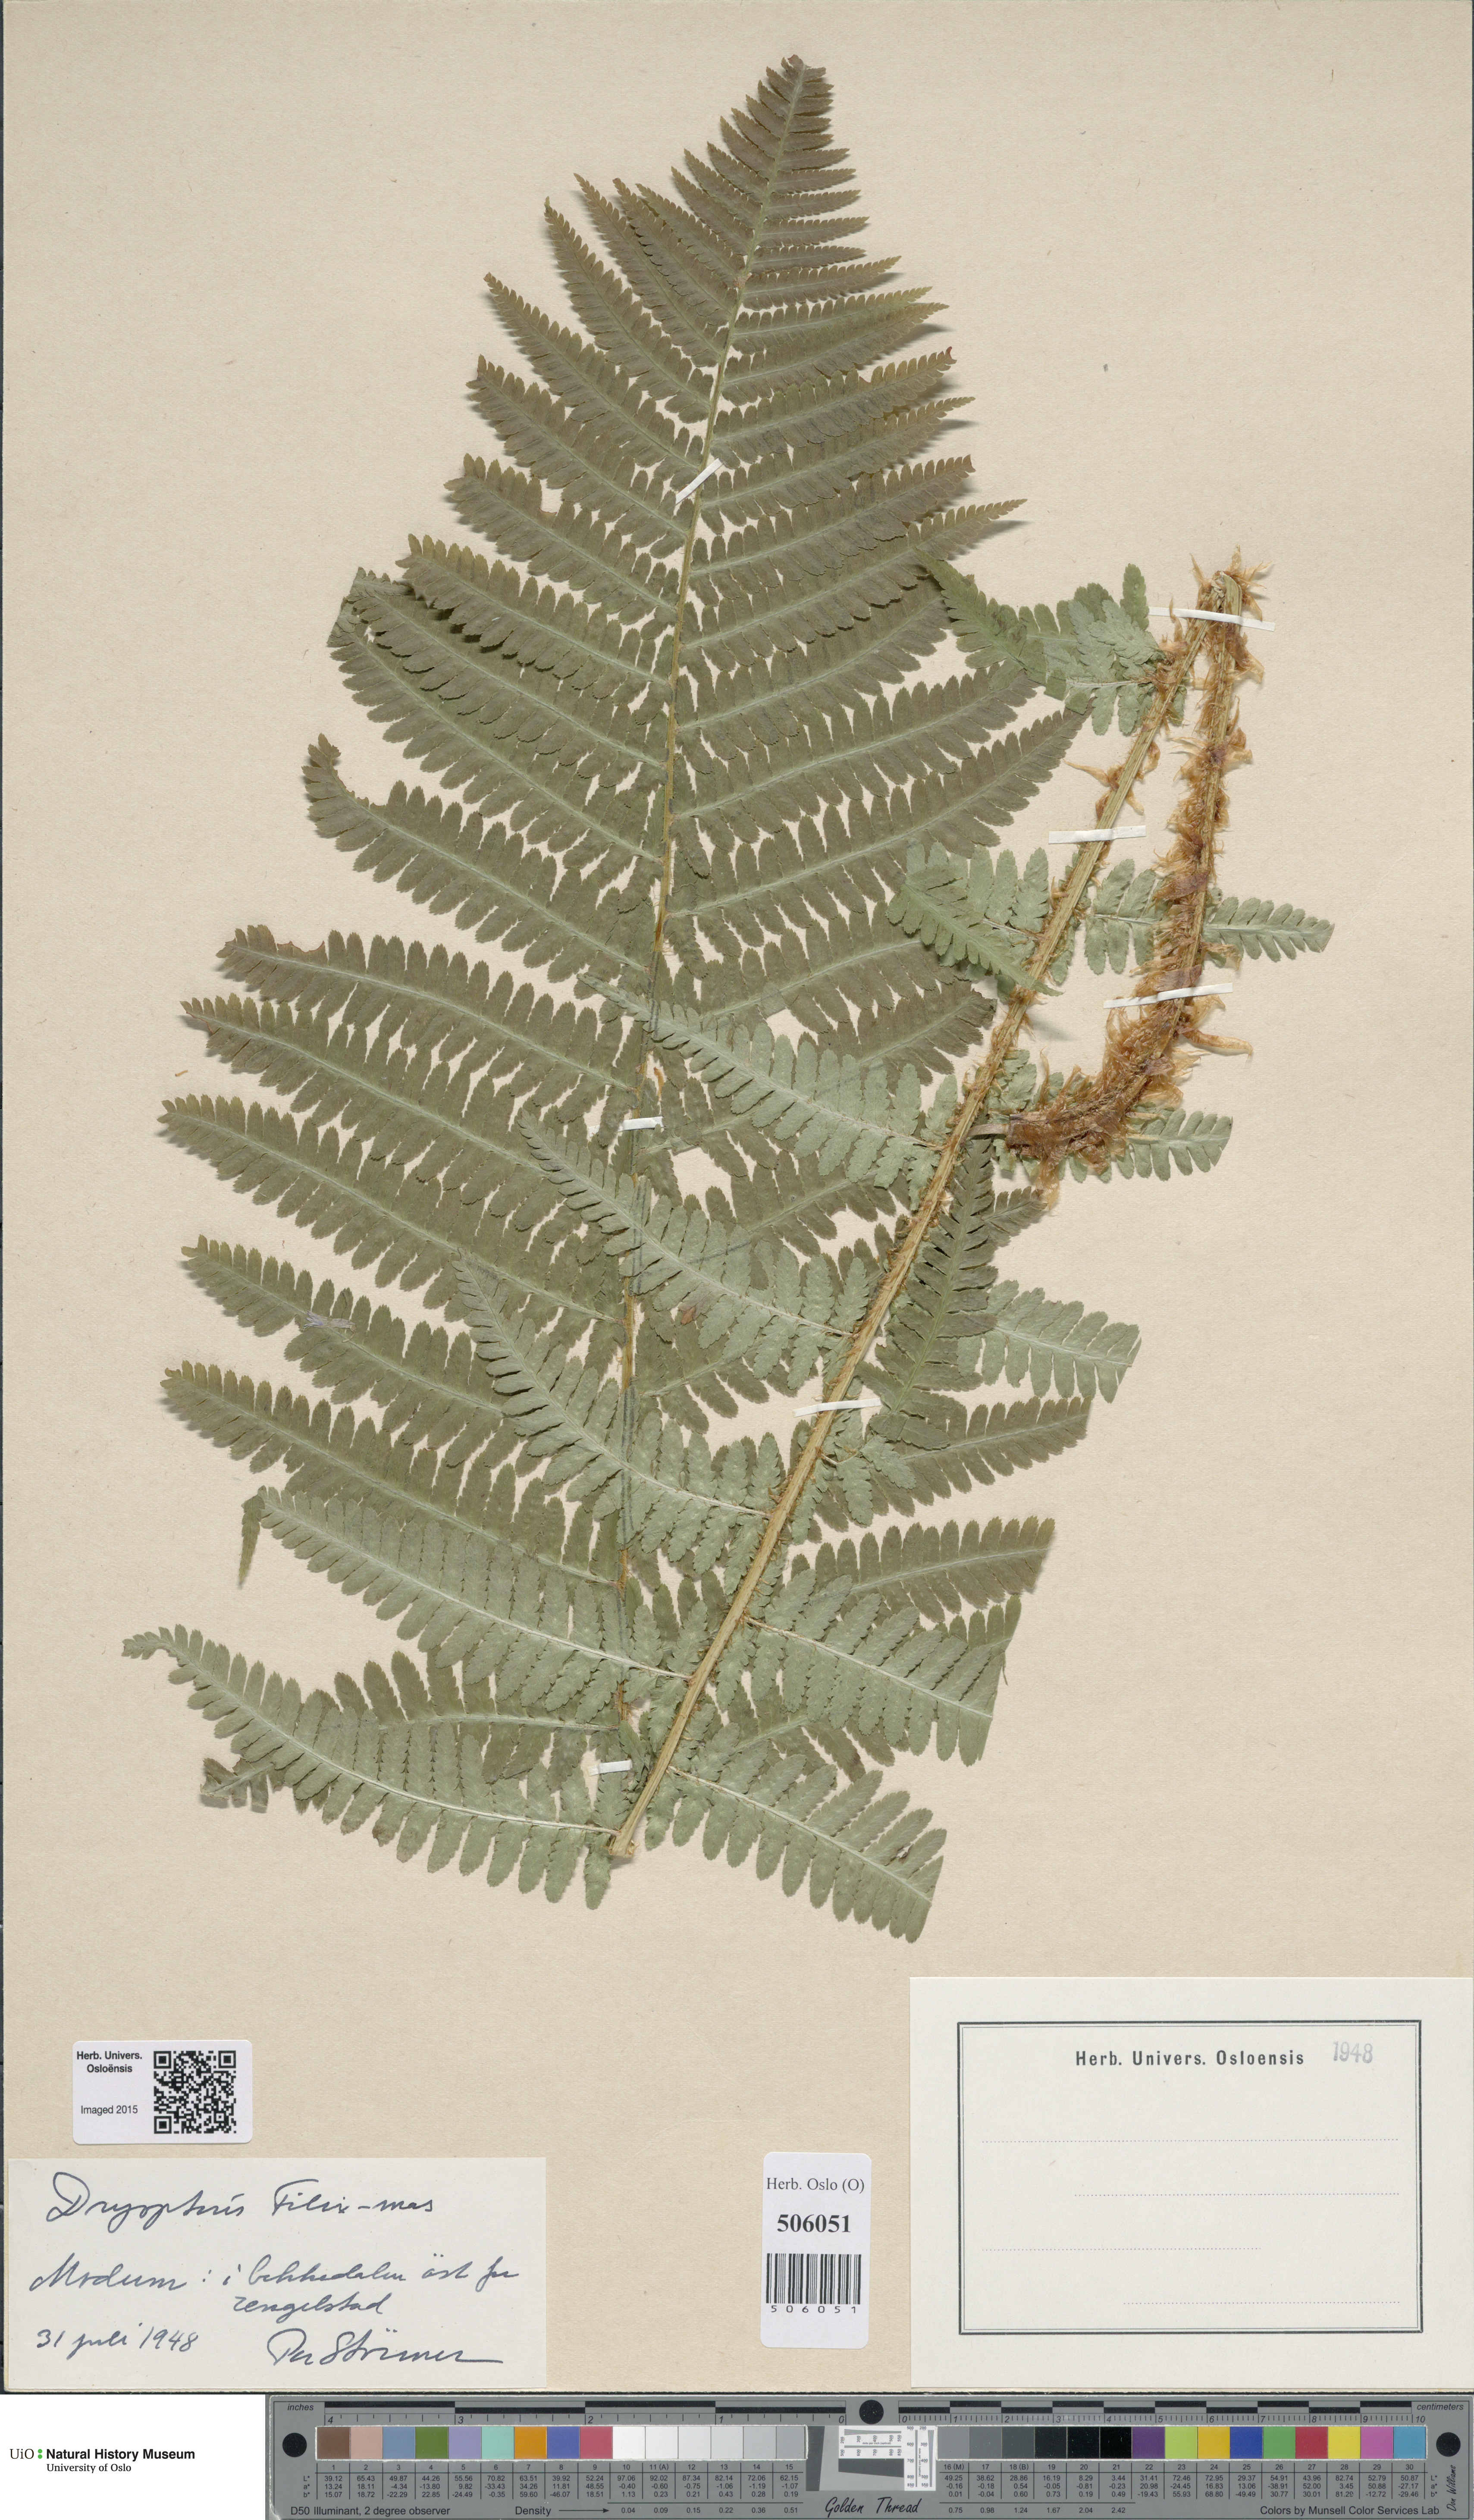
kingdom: Plantae
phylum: Tracheophyta
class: Polypodiopsida
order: Polypodiales
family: Dryopteridaceae
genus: Dryopteris
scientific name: Dryopteris filix-mas
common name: Male fern
